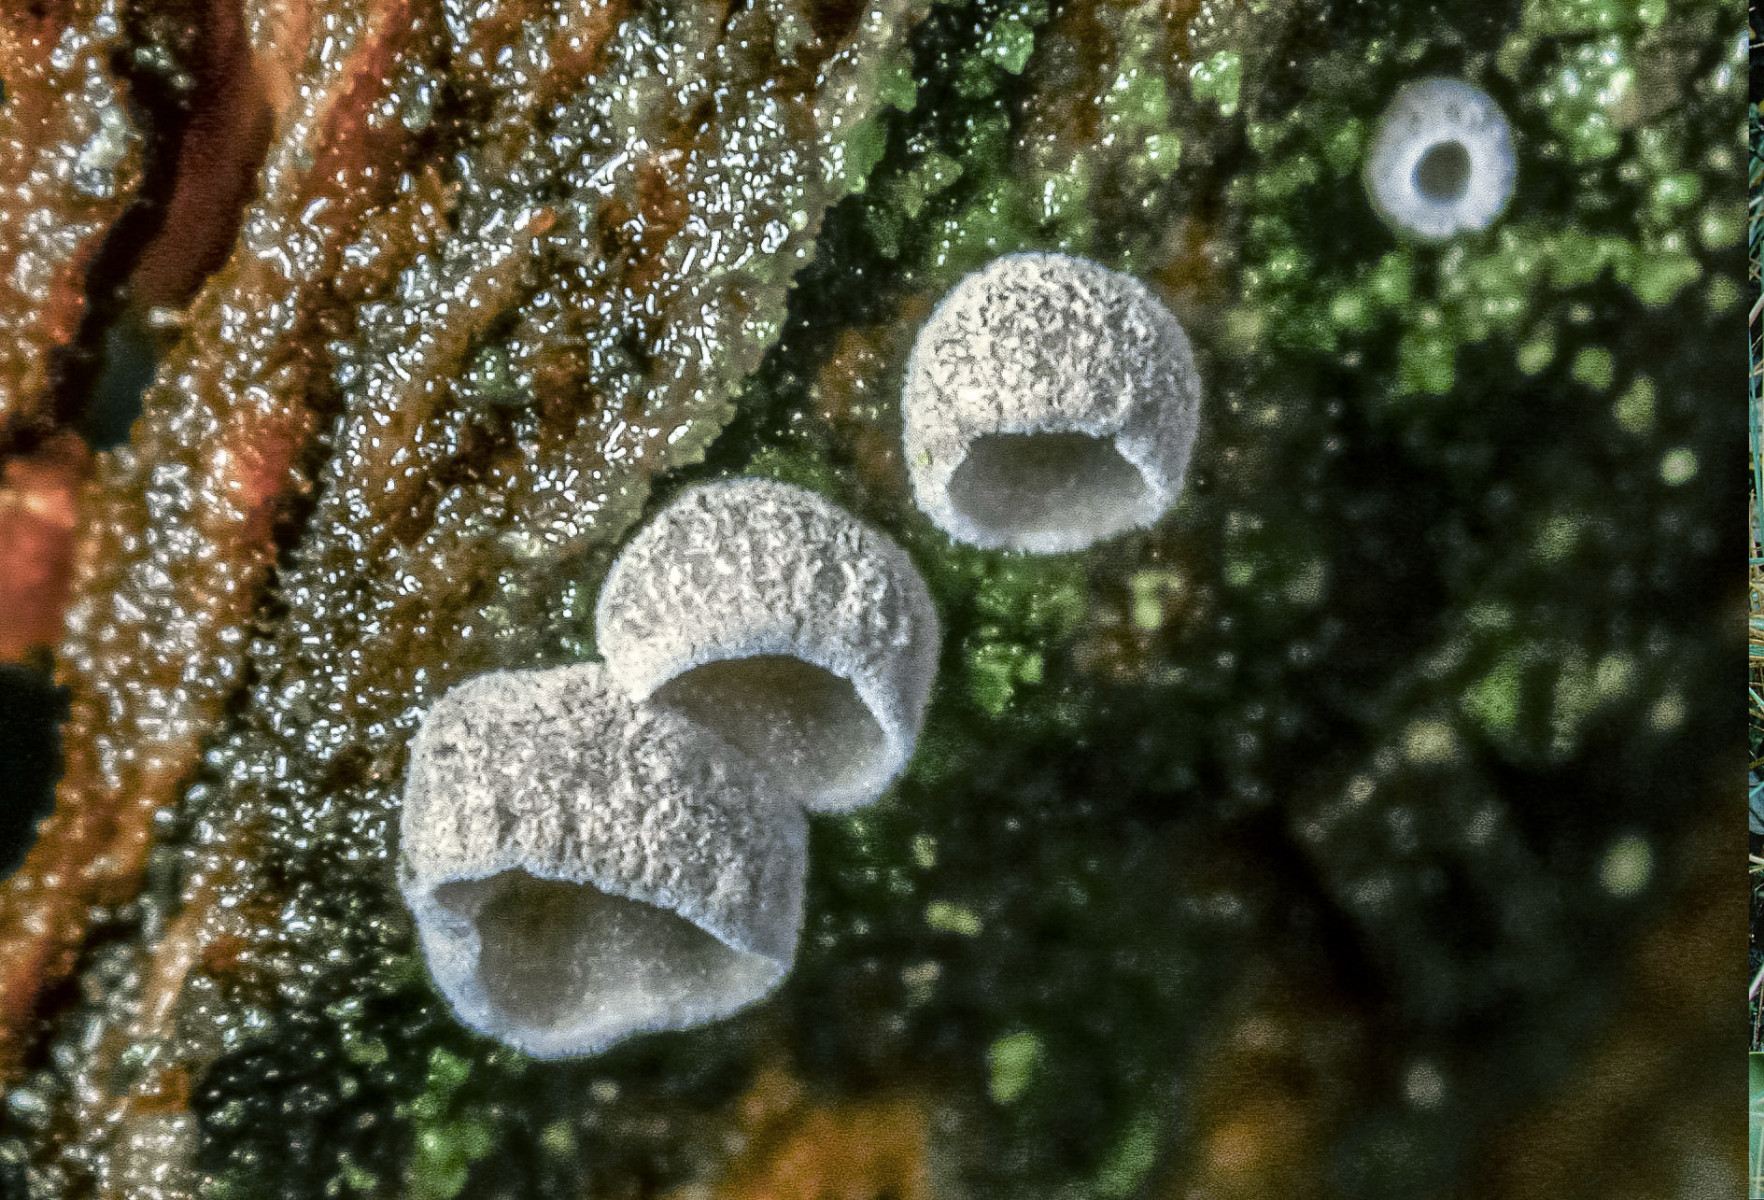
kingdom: Fungi
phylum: Basidiomycota
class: Agaricomycetes
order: Agaricales
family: Pleurotaceae
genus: Resupinatus
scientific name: Resupinatus griseopallidus
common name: ene-barkhat
